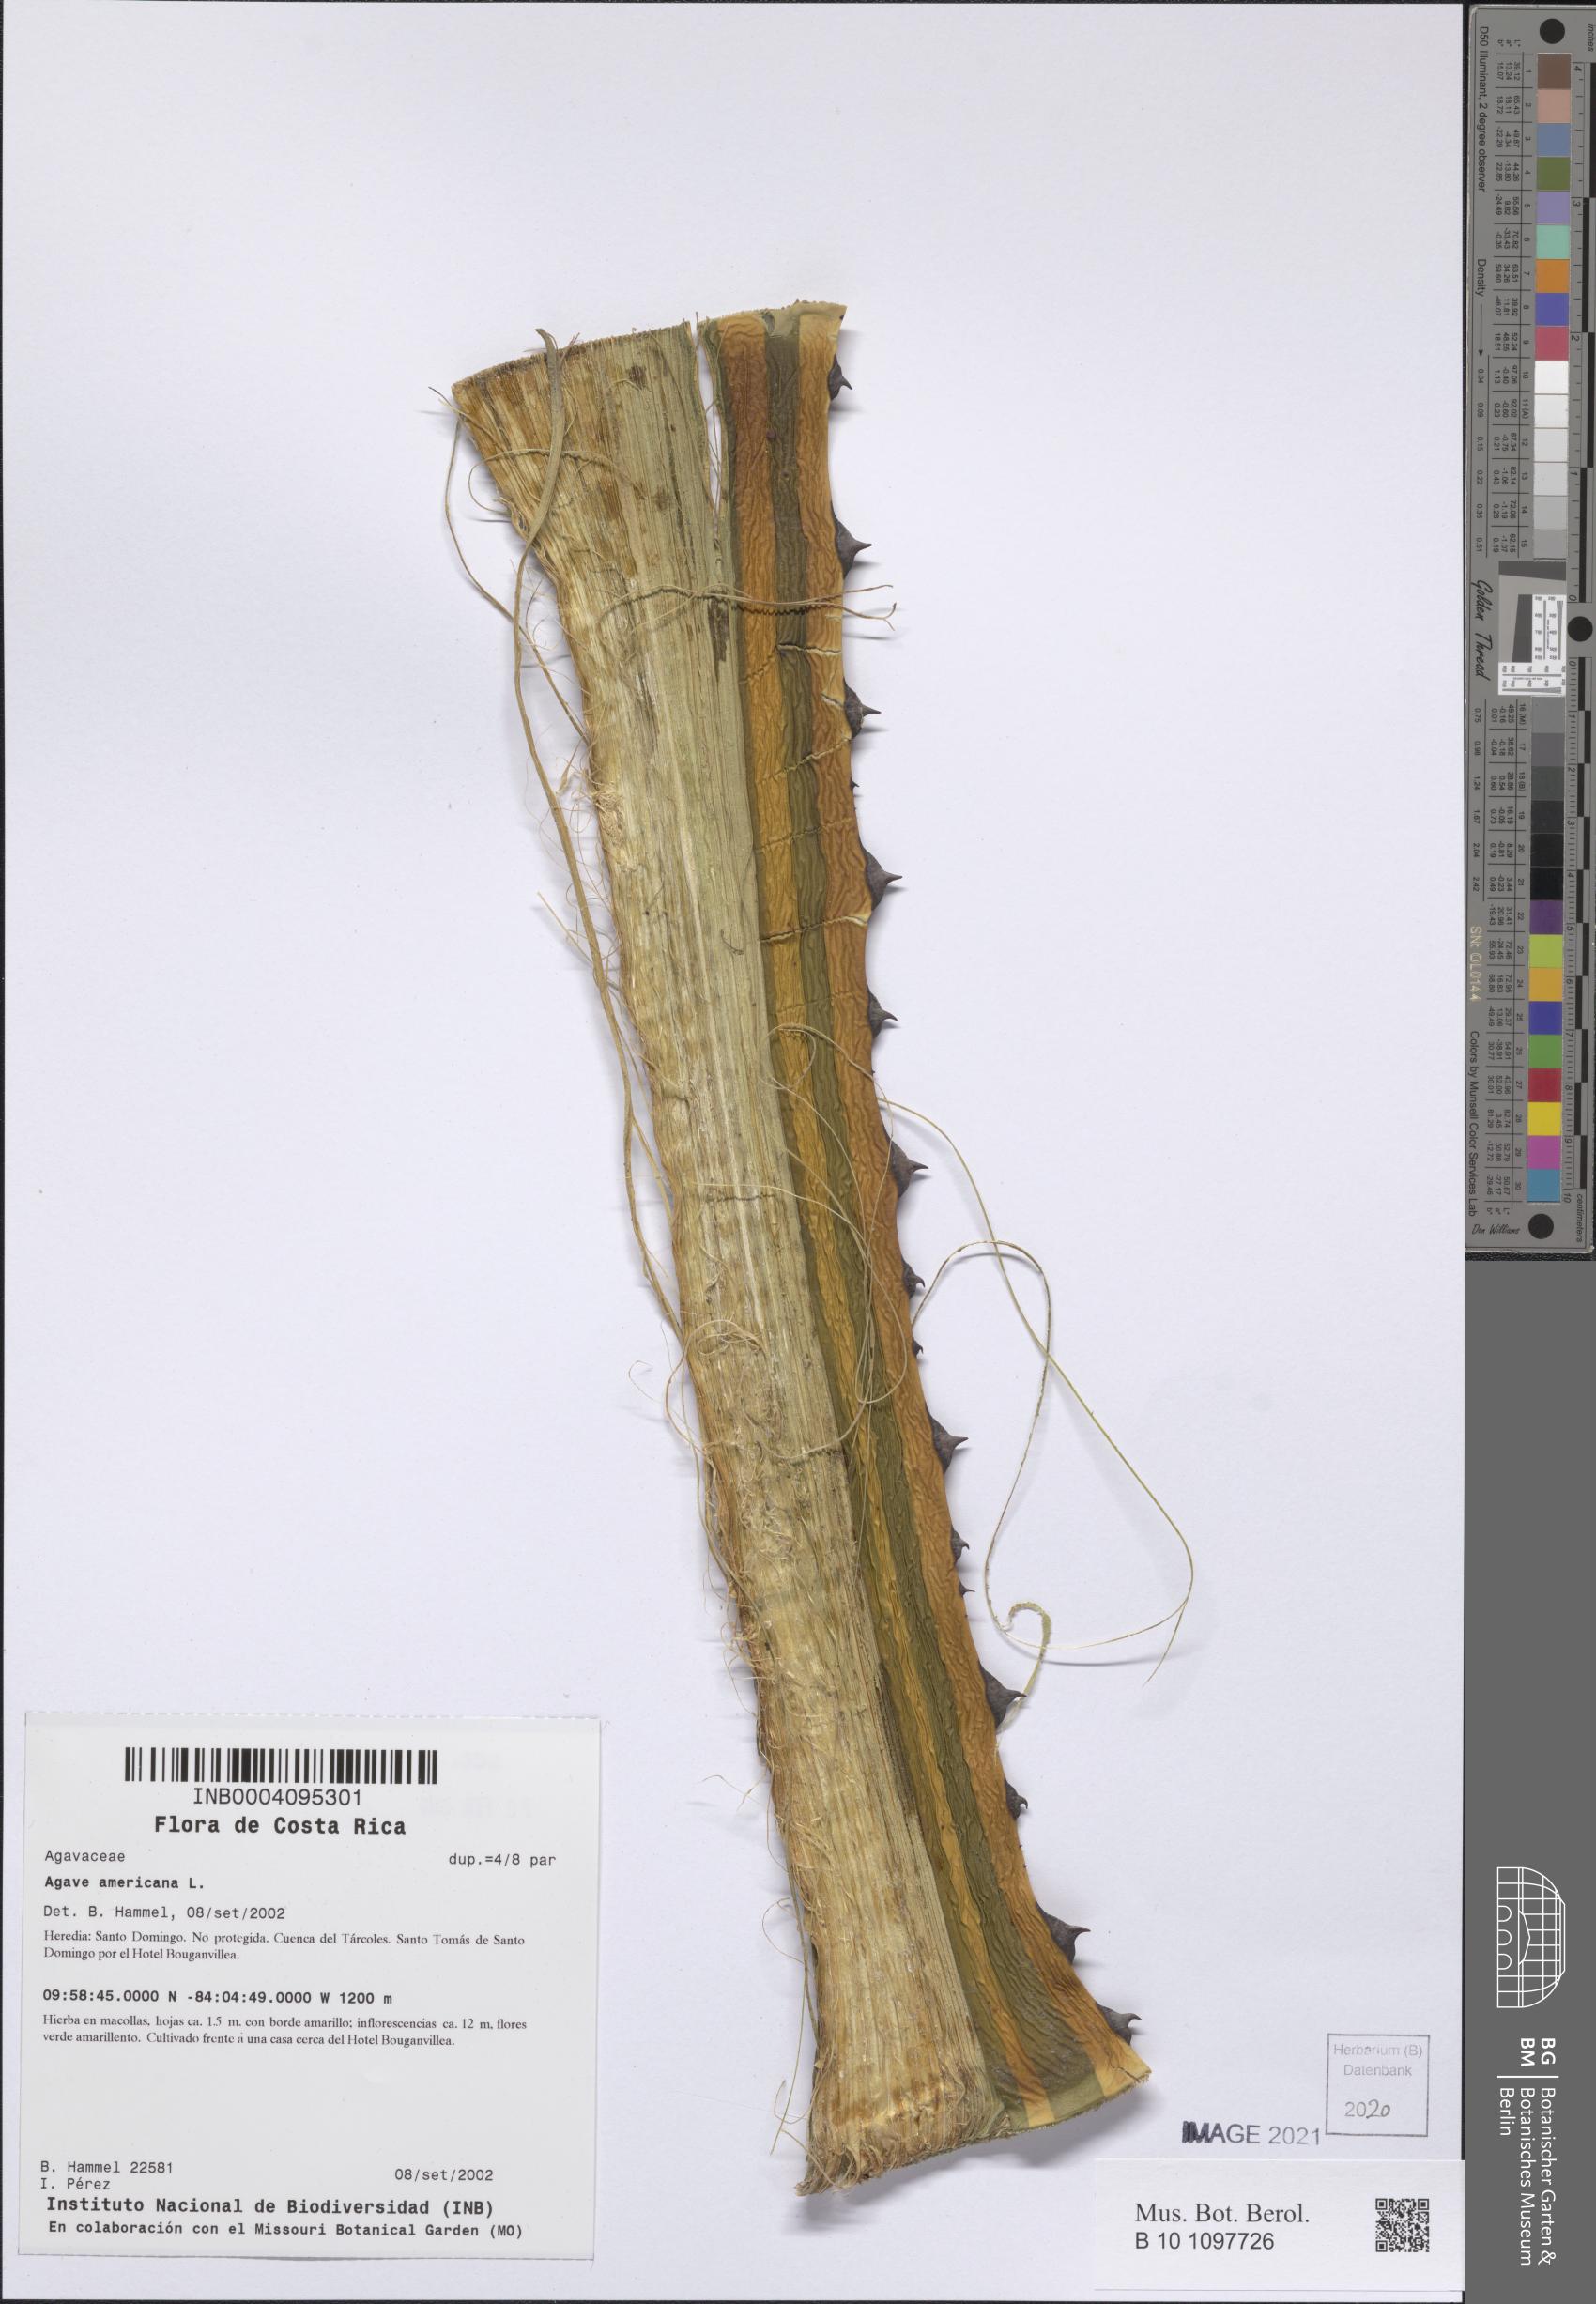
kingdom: Plantae
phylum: Tracheophyta
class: Liliopsida
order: Asparagales
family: Asparagaceae
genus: Agave
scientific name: Agave americana
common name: Centuryplant
